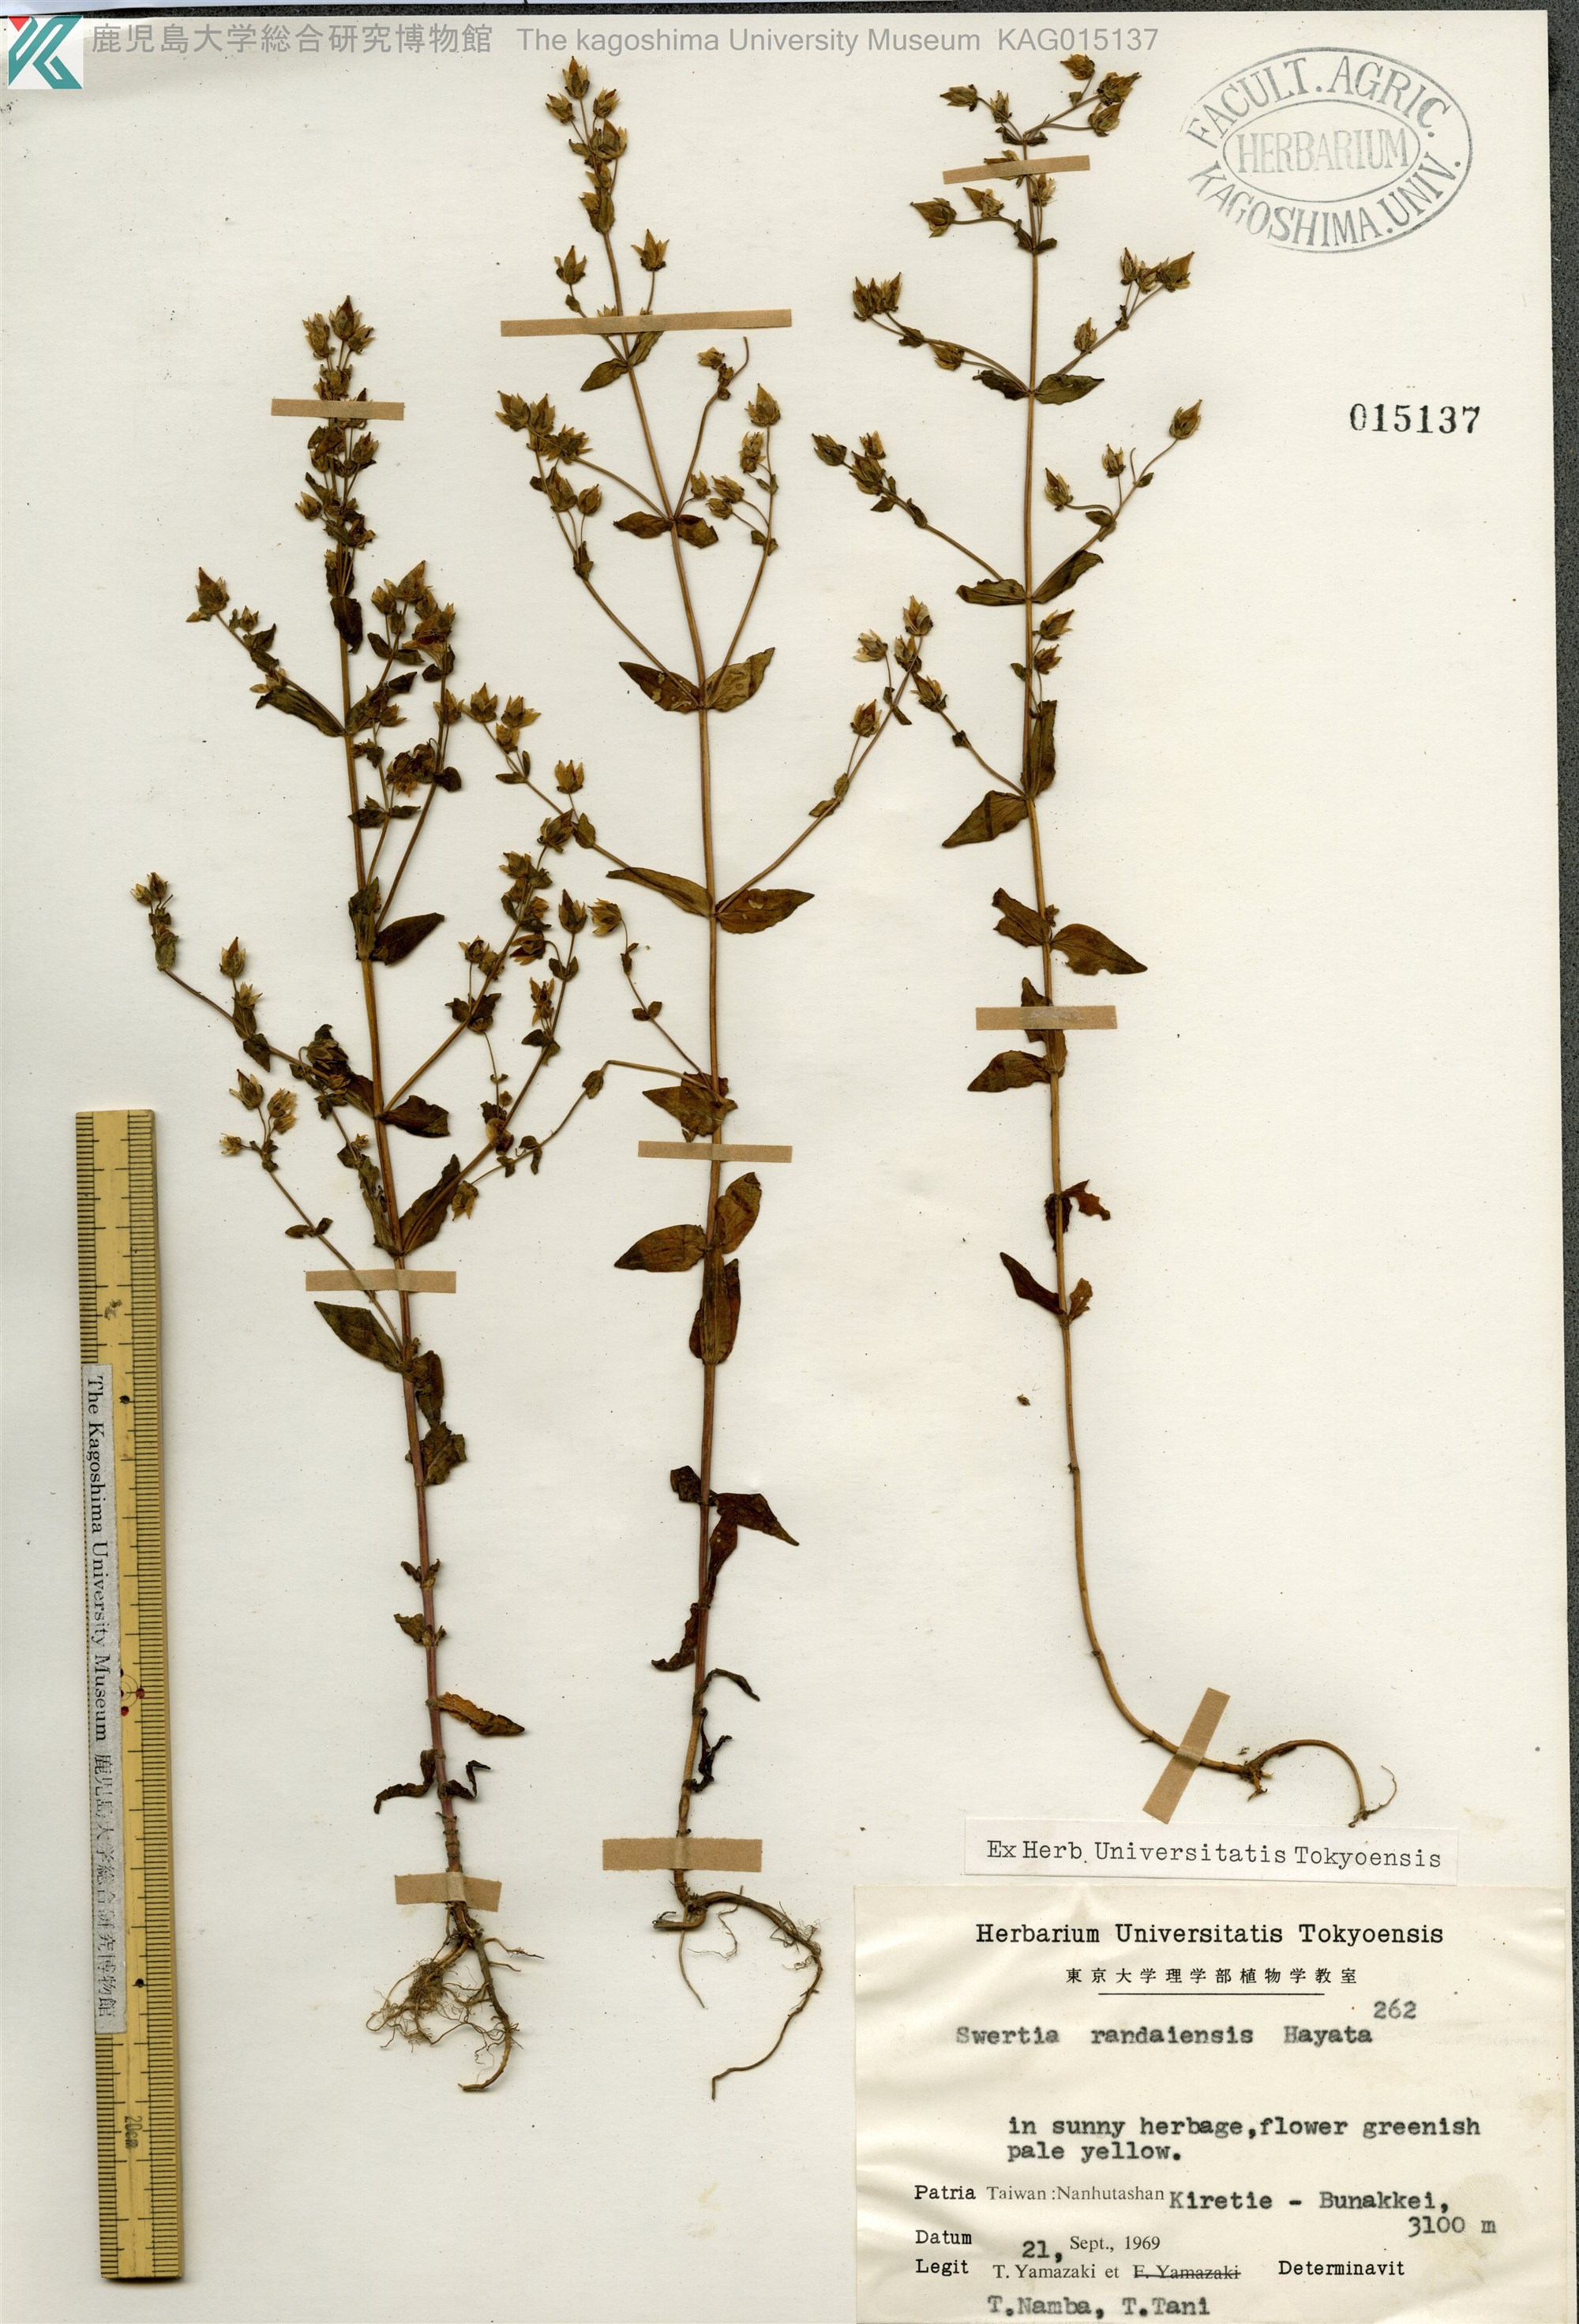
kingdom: Plantae
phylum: Tracheophyta
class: Magnoliopsida
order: Gentianales
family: Gentianaceae
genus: Swertia
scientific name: Swertia macrosperma
